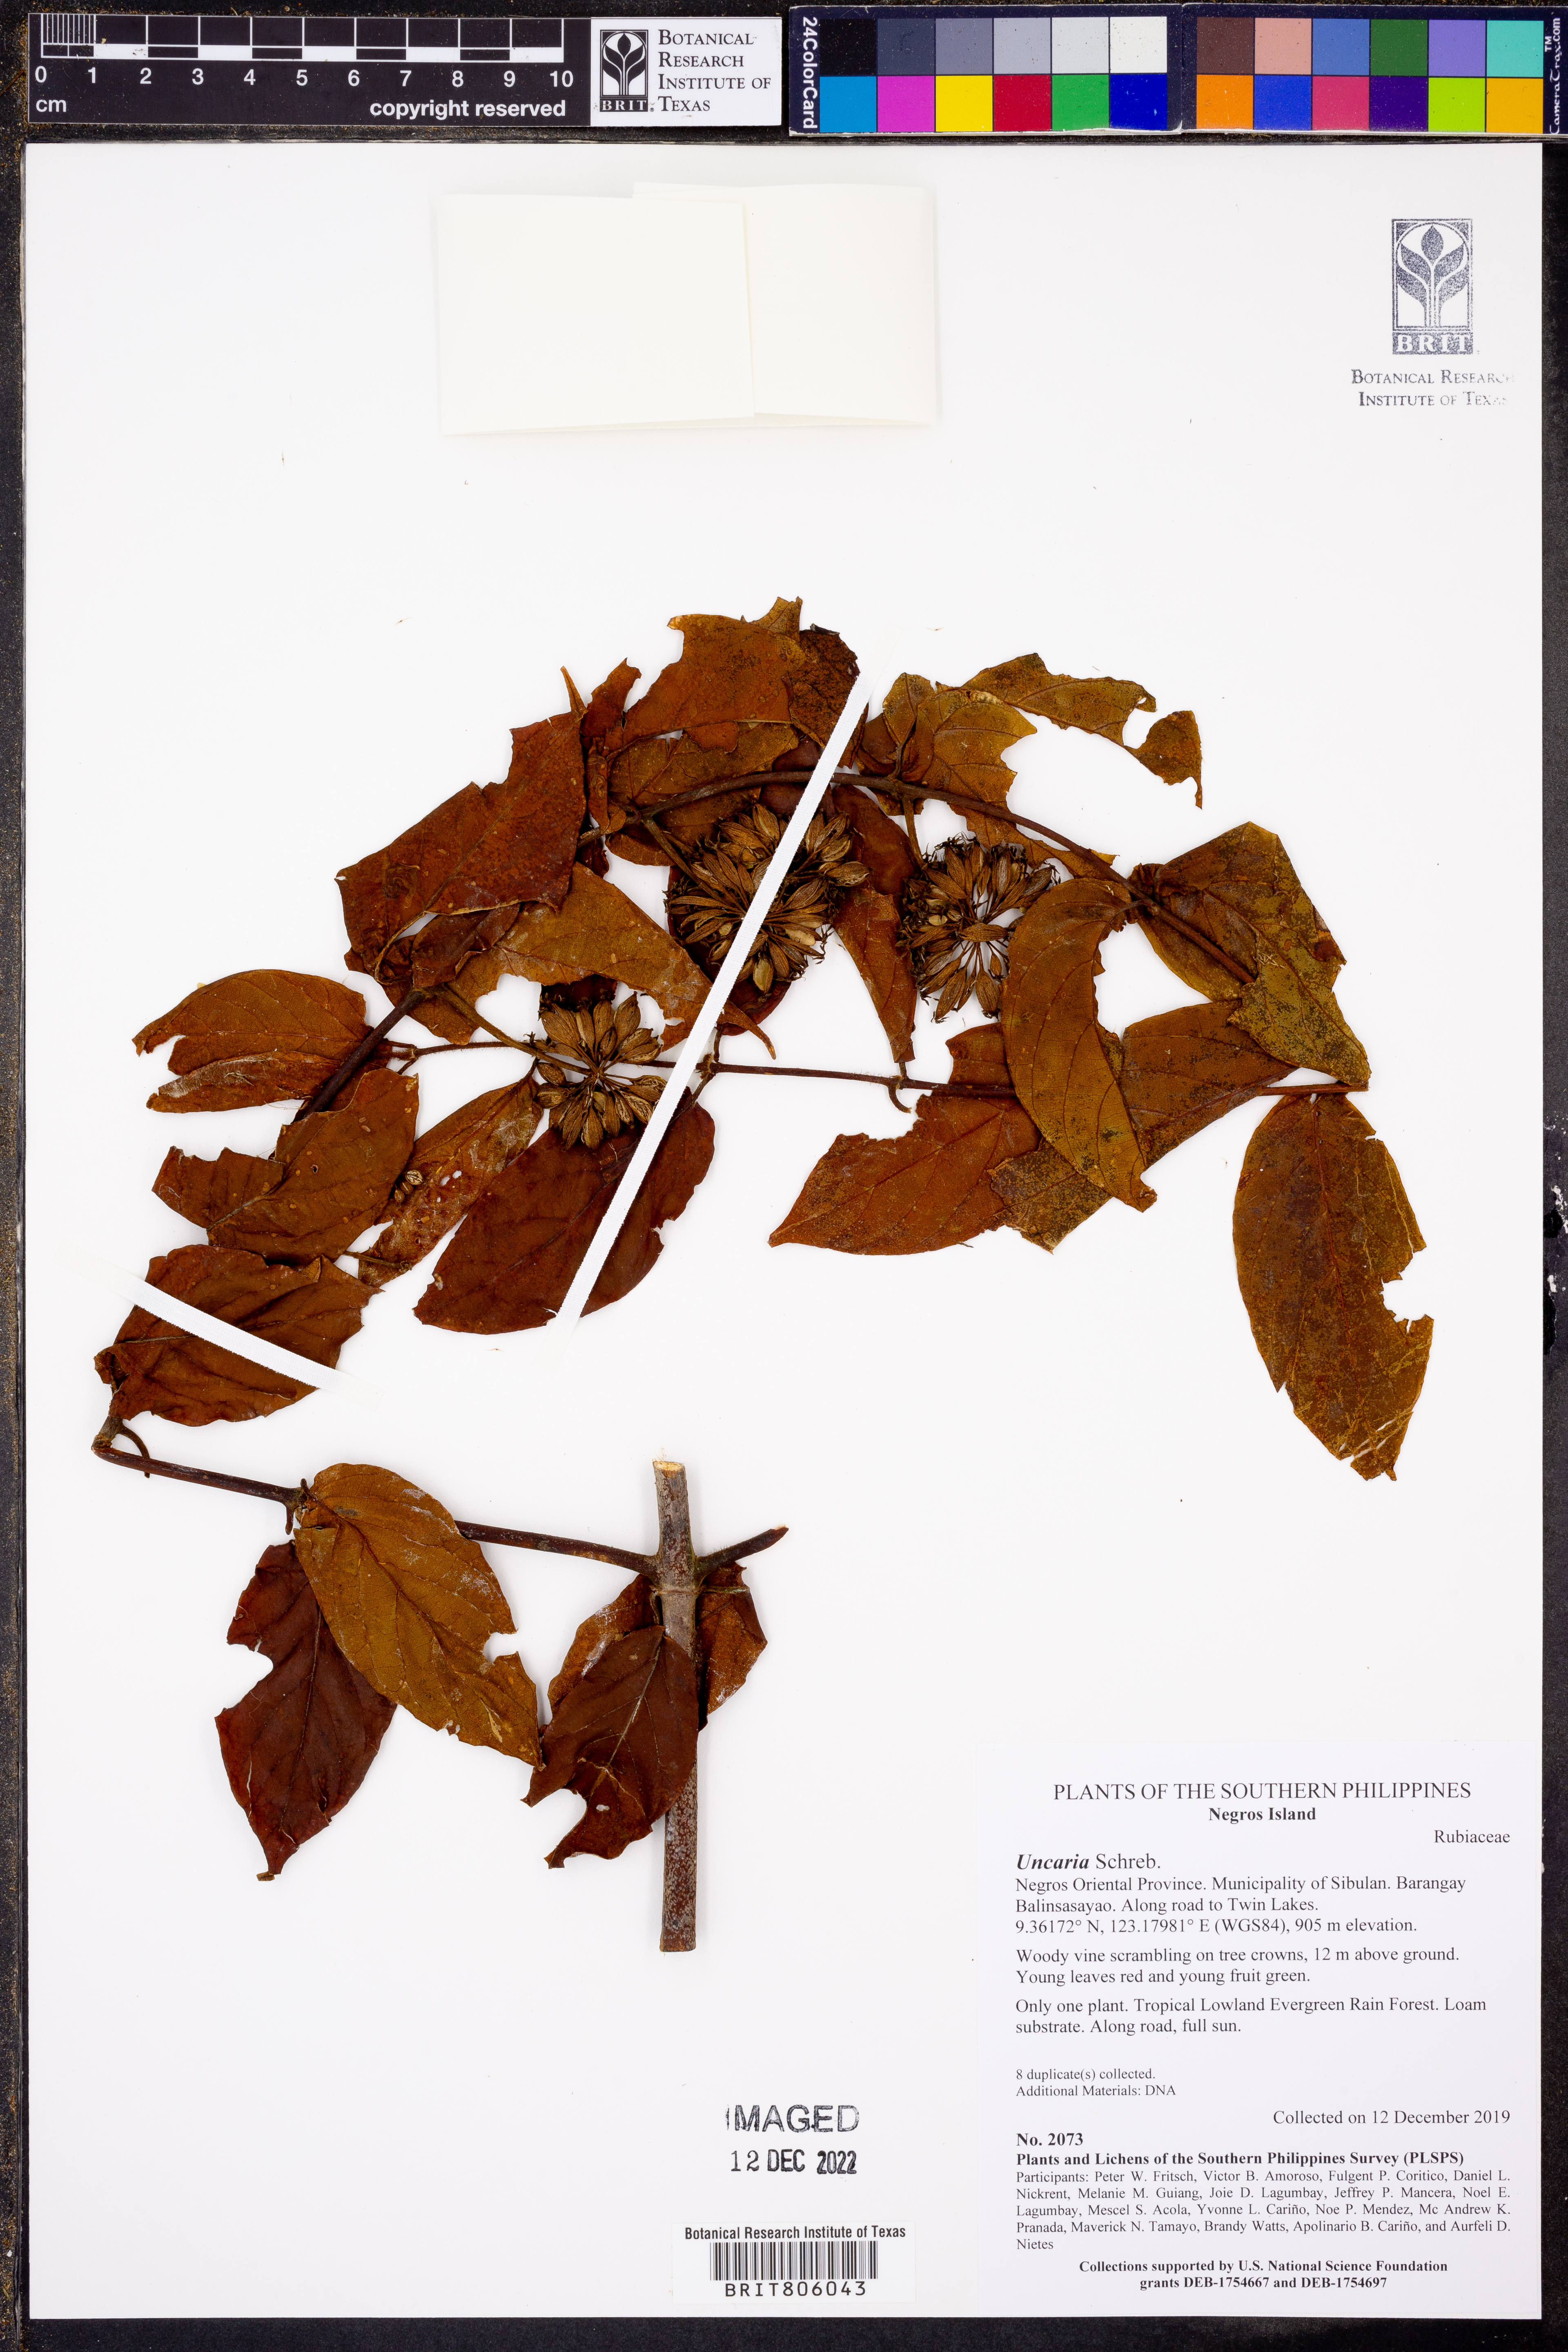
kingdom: Plantae
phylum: Tracheophyta
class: Magnoliopsida
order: Gentianales
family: Rubiaceae
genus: Uncaria
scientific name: Uncaria
